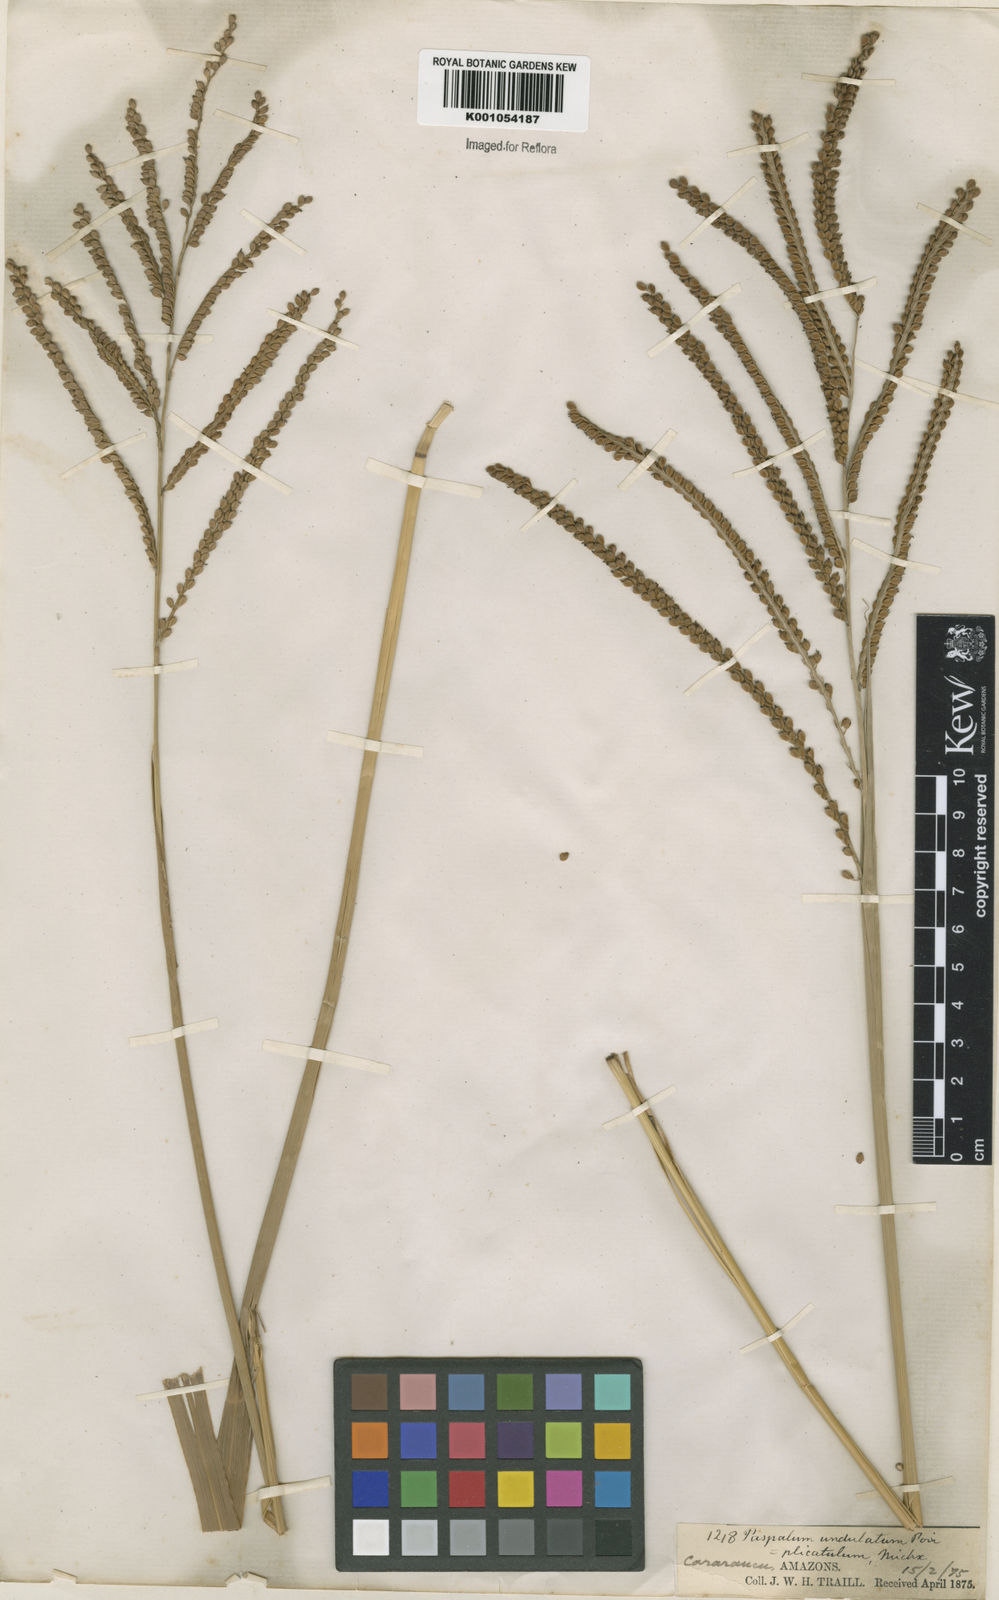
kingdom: Plantae
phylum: Tracheophyta
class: Liliopsida
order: Poales
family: Poaceae
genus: Paspalum
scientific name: Paspalum virgatum
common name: Talquezal
